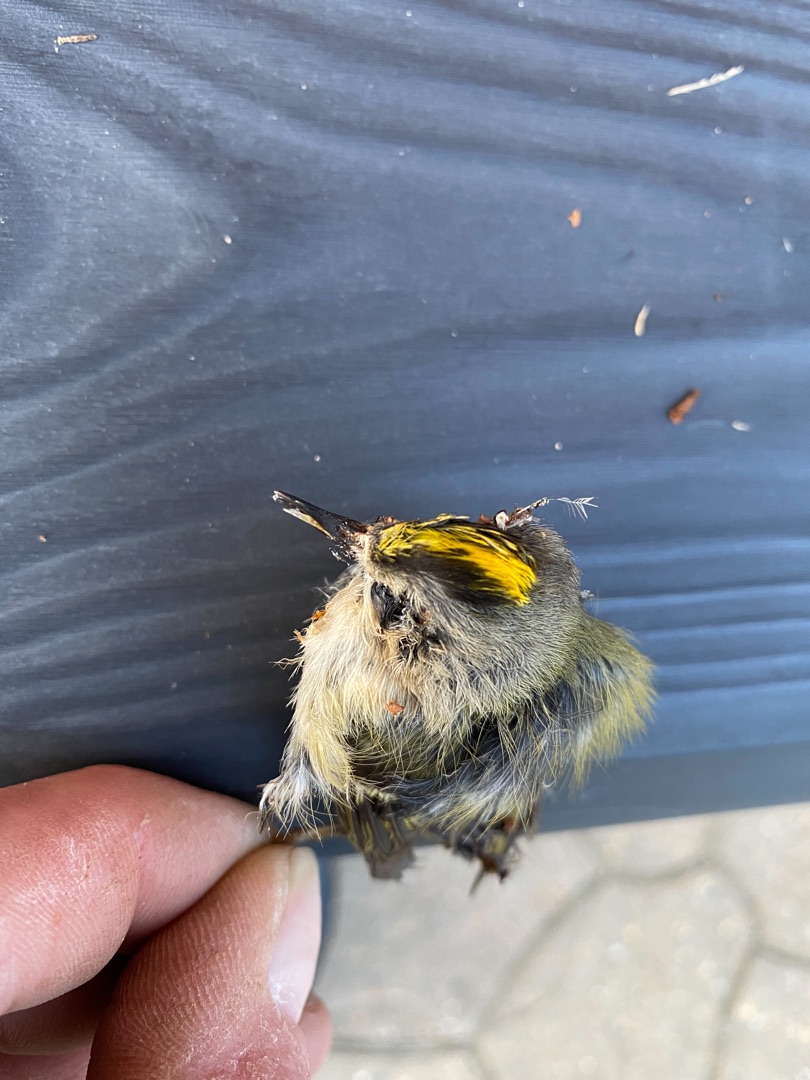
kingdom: Animalia
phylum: Chordata
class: Aves
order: Passeriformes
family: Regulidae
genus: Regulus
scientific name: Regulus regulus
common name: Fuglekonge
